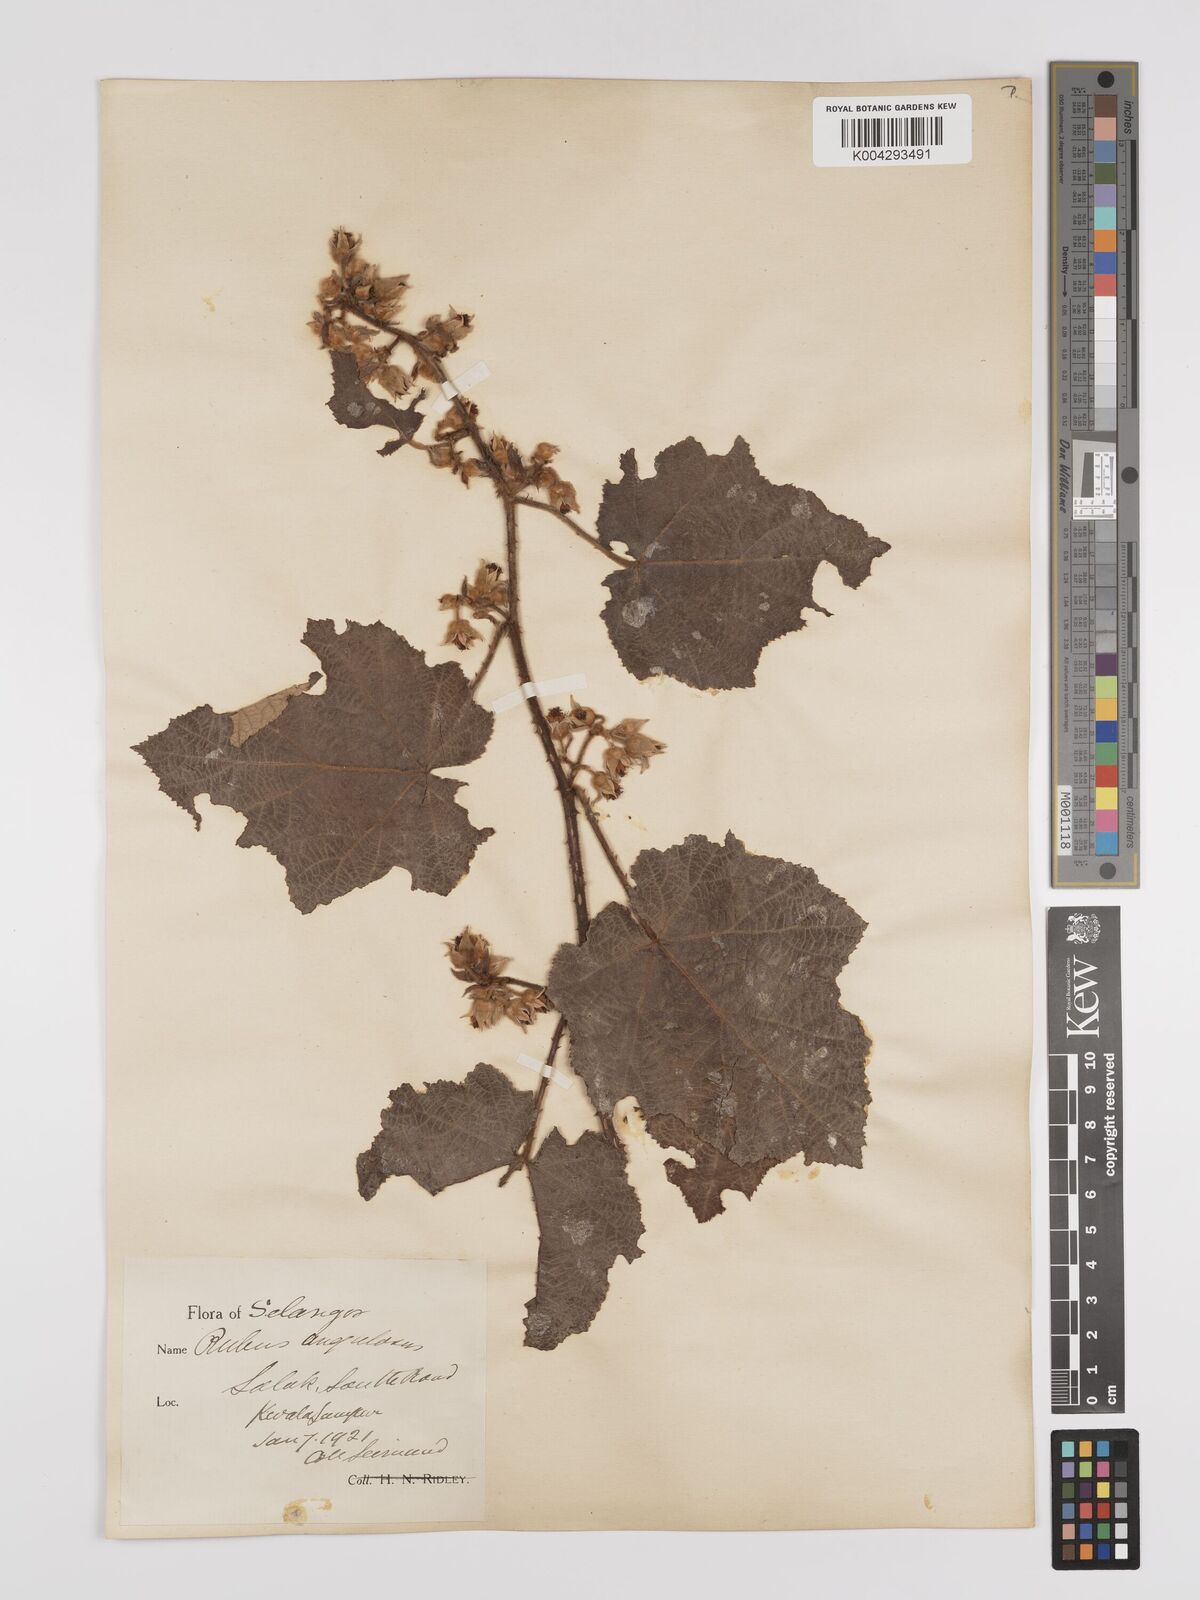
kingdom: Plantae
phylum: Tracheophyta
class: Magnoliopsida
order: Rosales
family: Rosaceae
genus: Rubus
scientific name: Rubus moluccanus
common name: Wild raspberry
